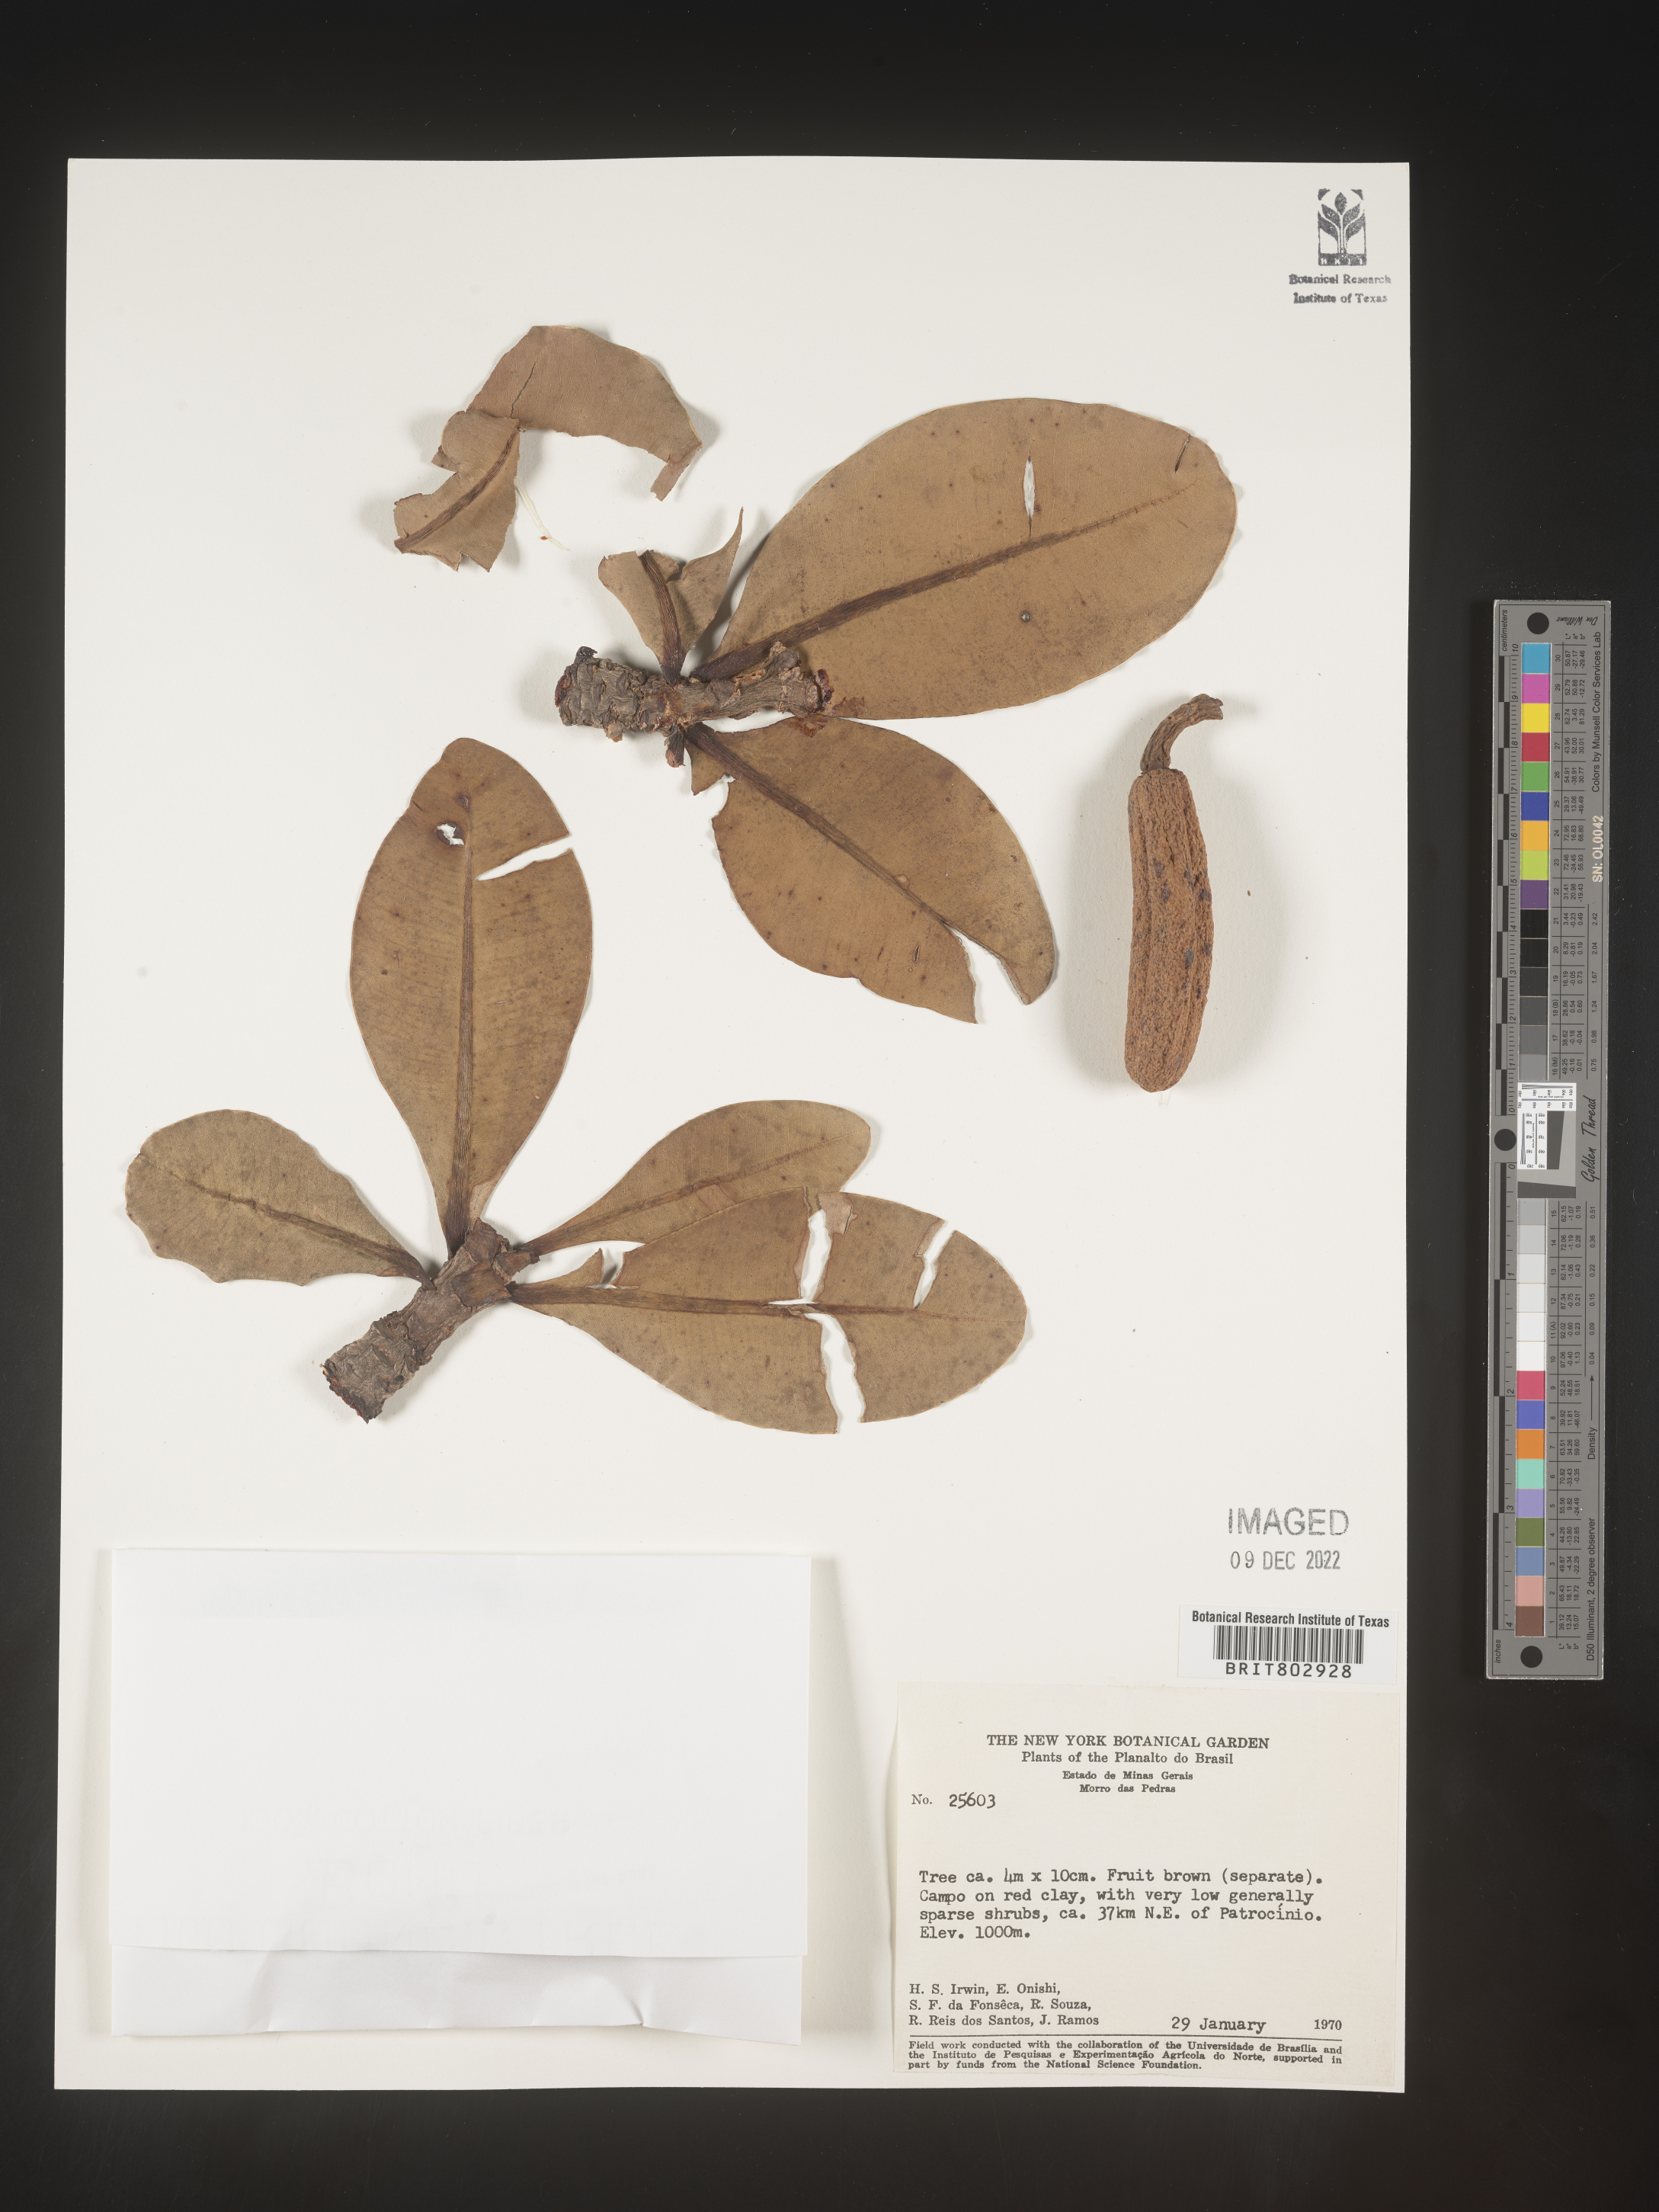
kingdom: Plantae
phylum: Tracheophyta
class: Magnoliopsida
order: Malpighiales
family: Calophyllaceae
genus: Kielmeyera
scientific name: Kielmeyera
